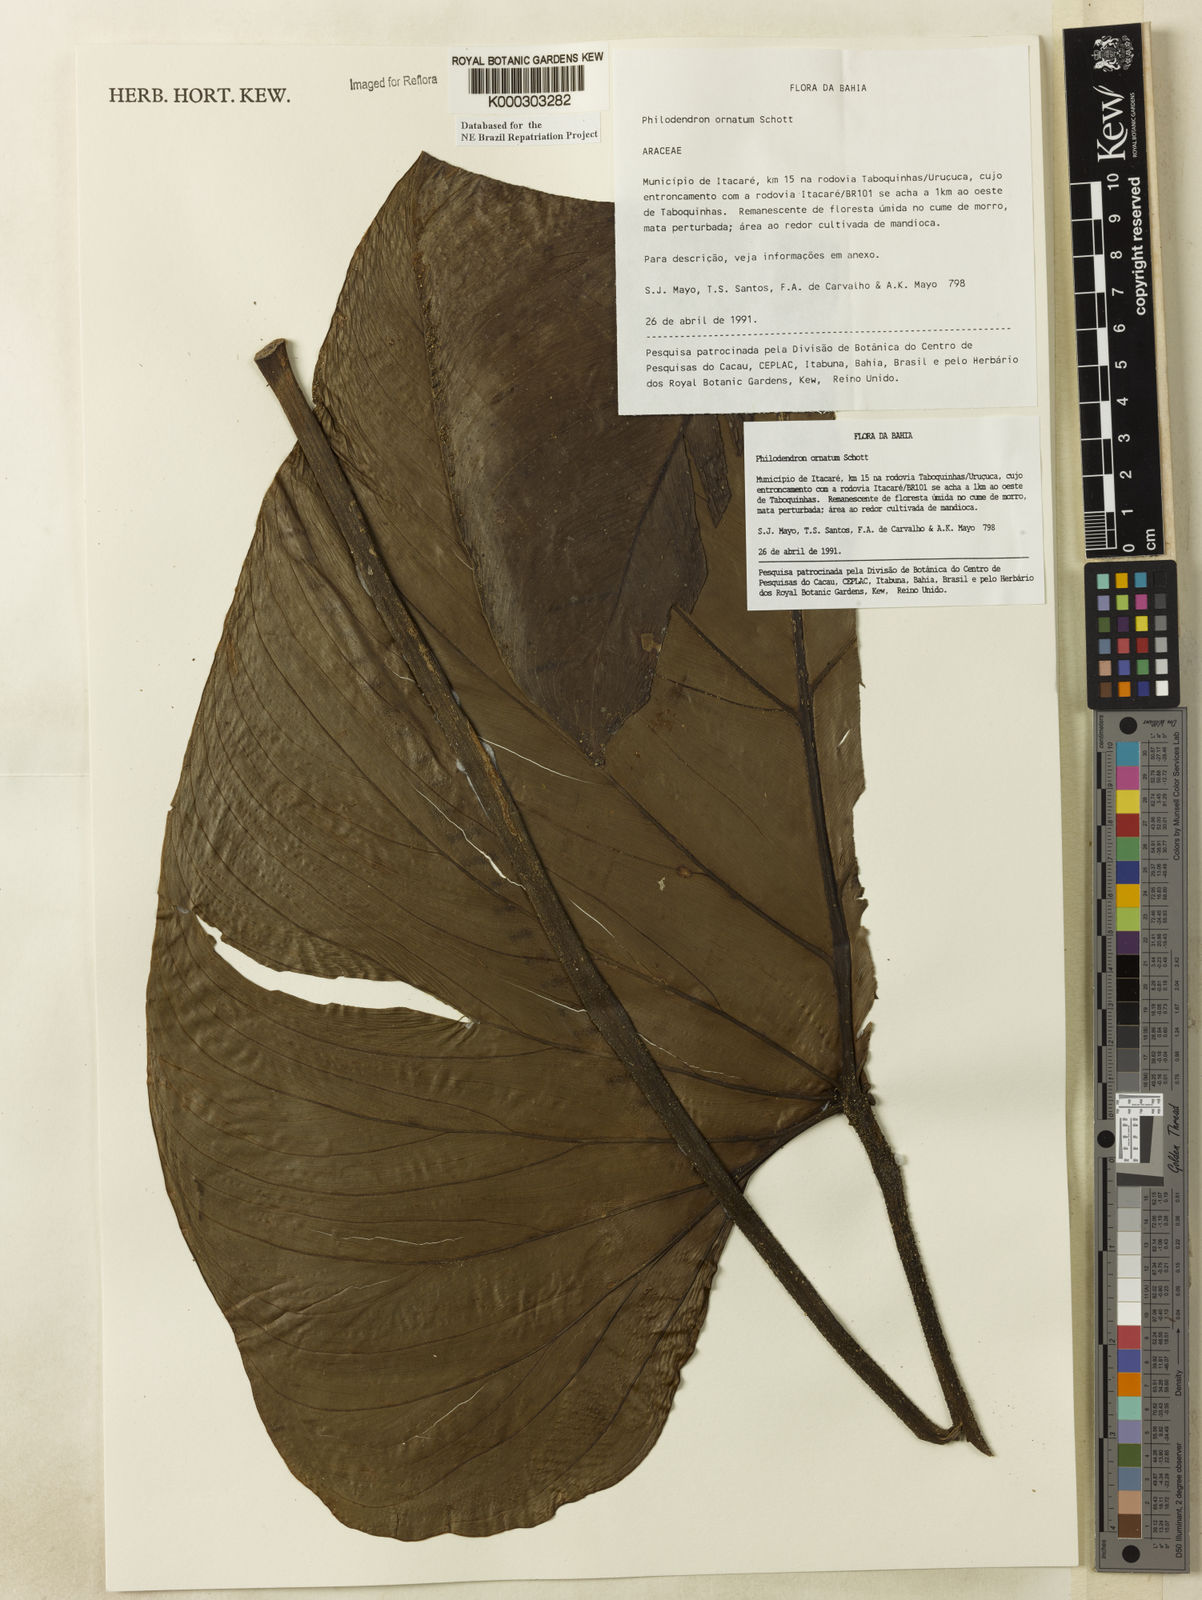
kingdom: Plantae
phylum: Tracheophyta
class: Liliopsida
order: Alismatales
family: Araceae
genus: Philodendron
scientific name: Philodendron ornatum
